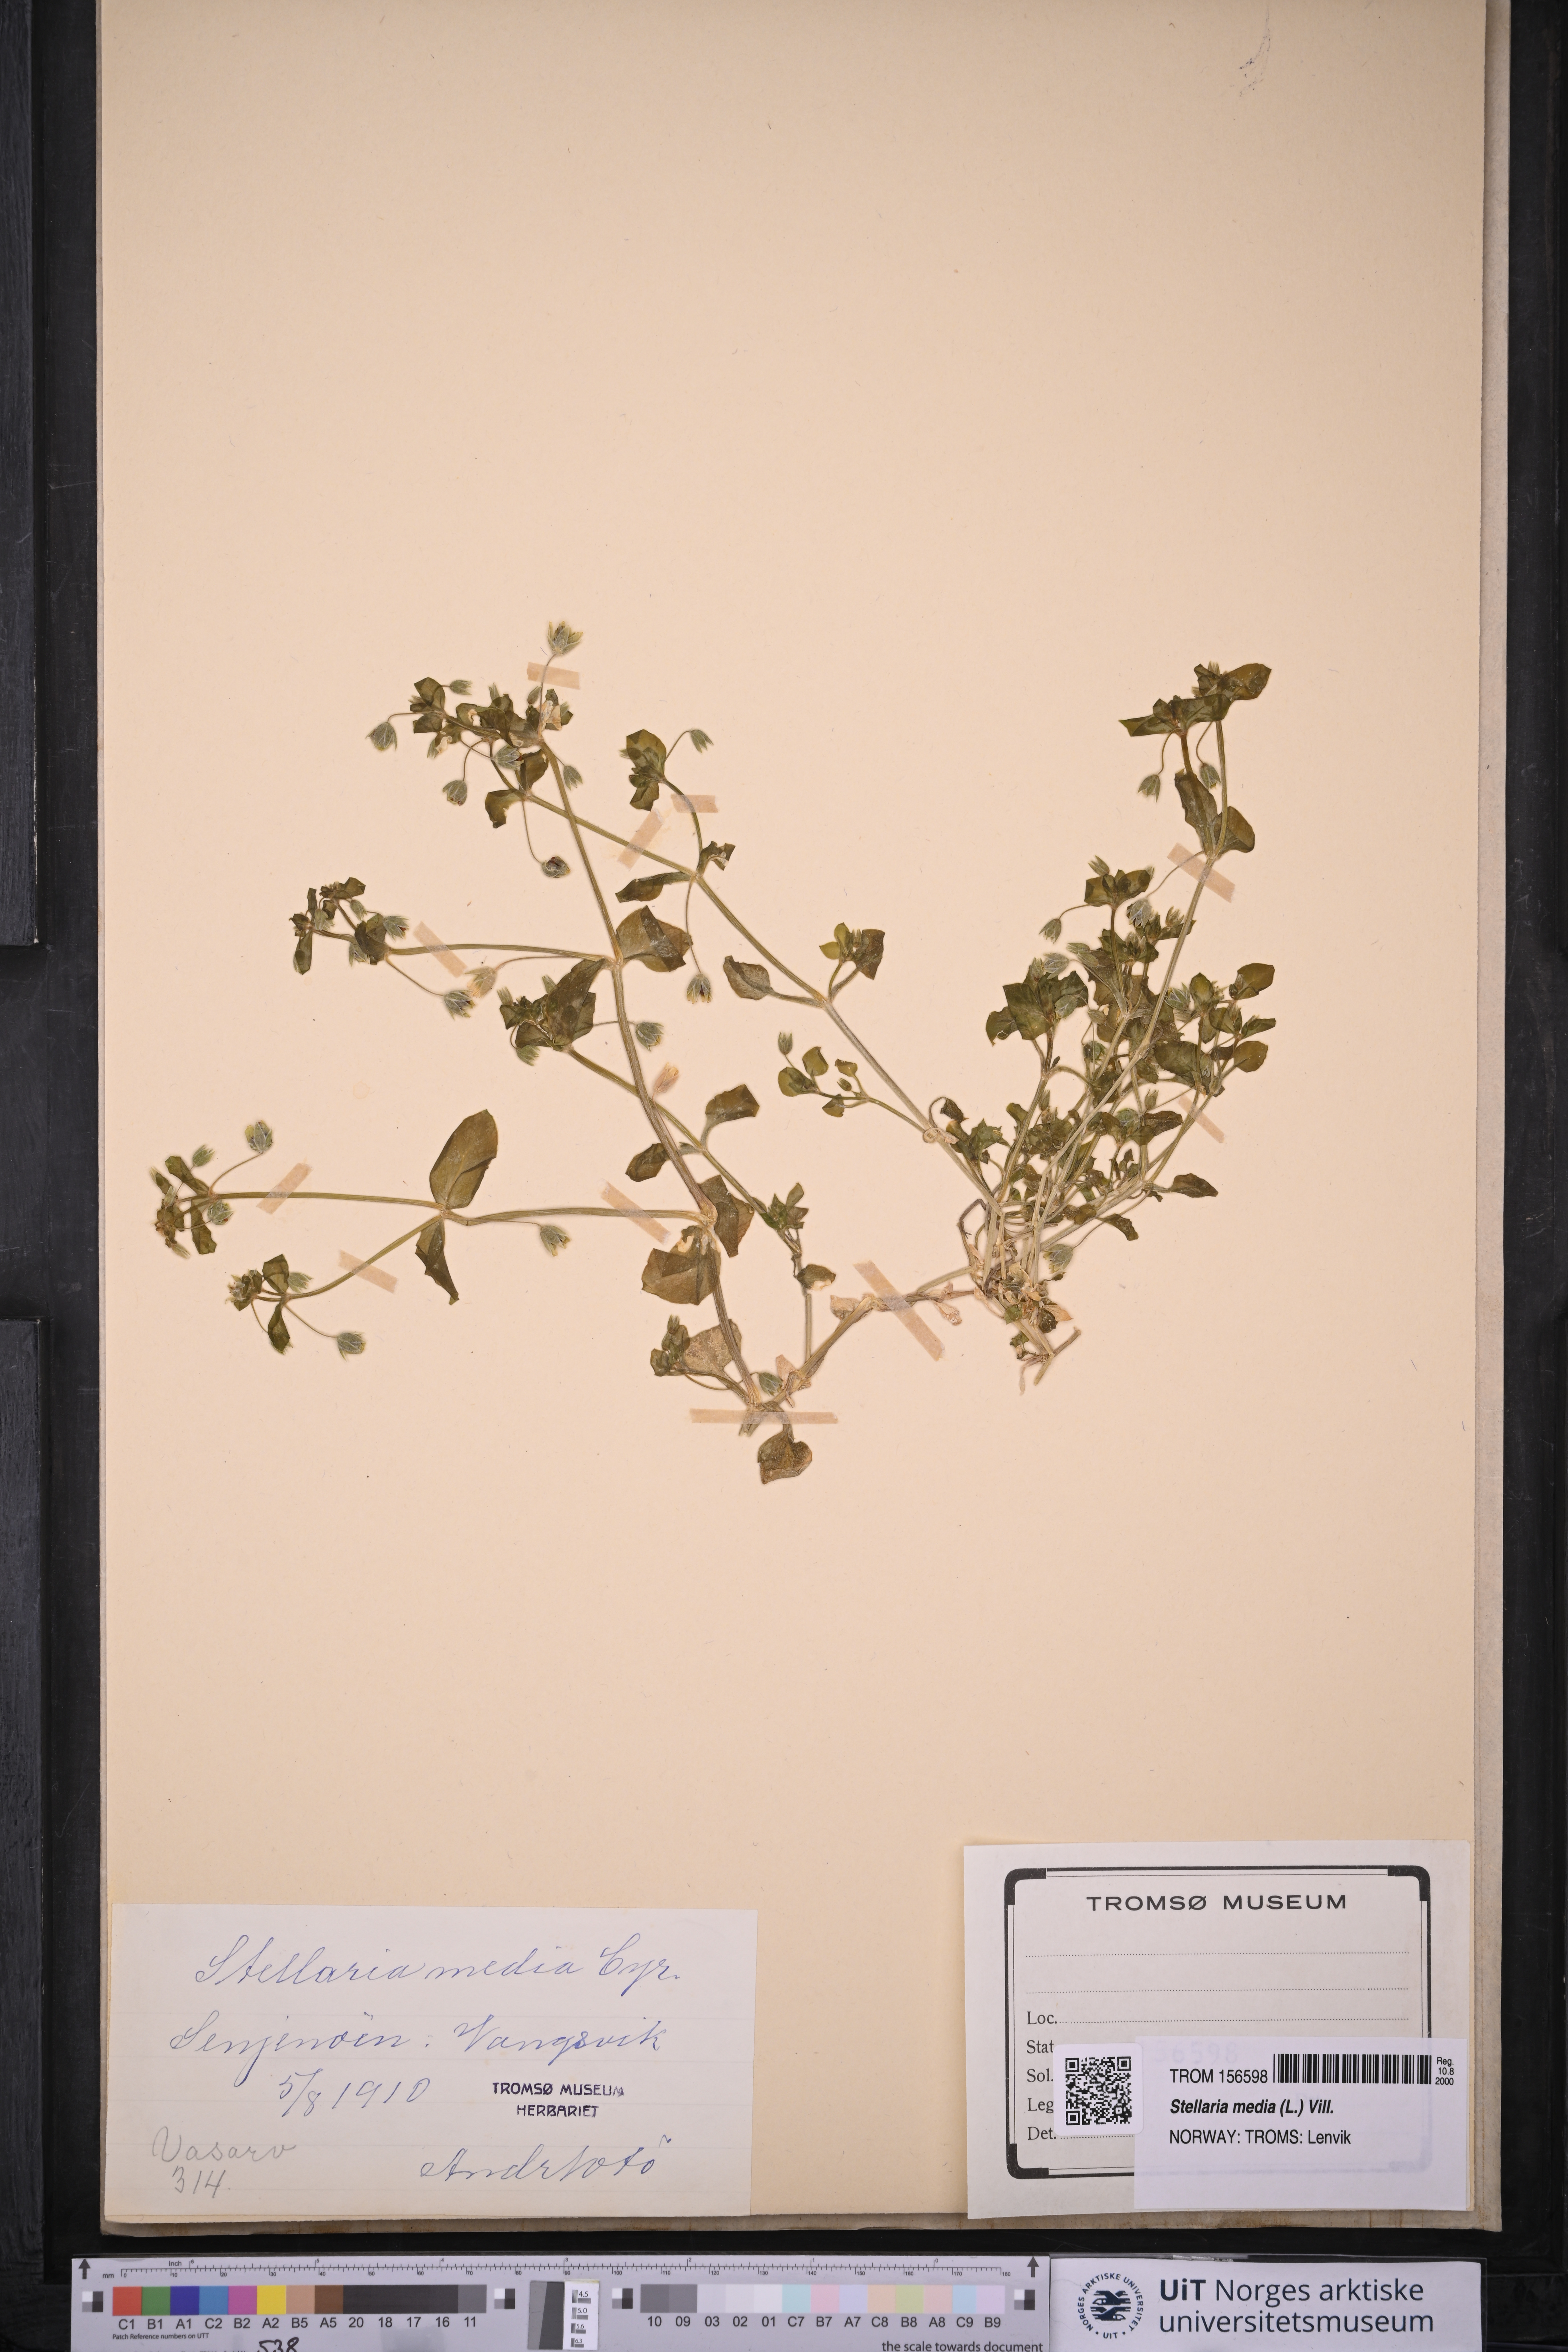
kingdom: Plantae
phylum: Tracheophyta
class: Magnoliopsida
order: Caryophyllales
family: Caryophyllaceae
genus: Stellaria
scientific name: Stellaria media
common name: Common chickweed
